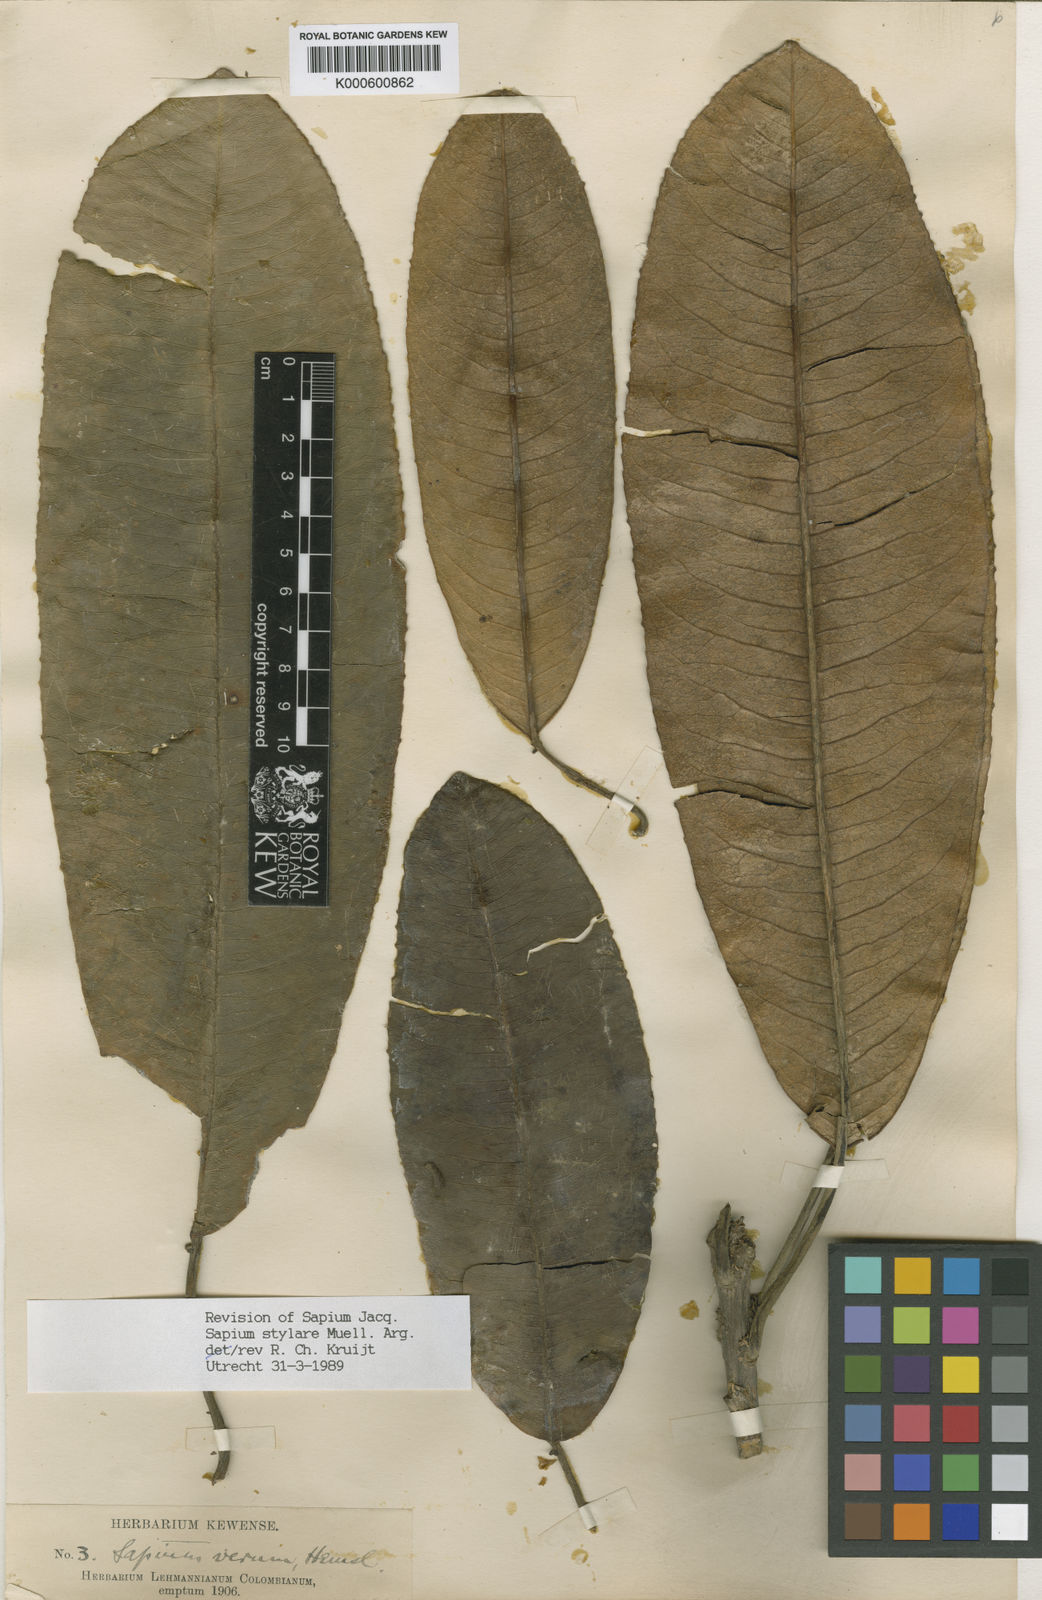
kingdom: Plantae
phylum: Tracheophyta
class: Magnoliopsida
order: Malpighiales
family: Euphorbiaceae
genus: Sapium
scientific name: Sapium stylare
